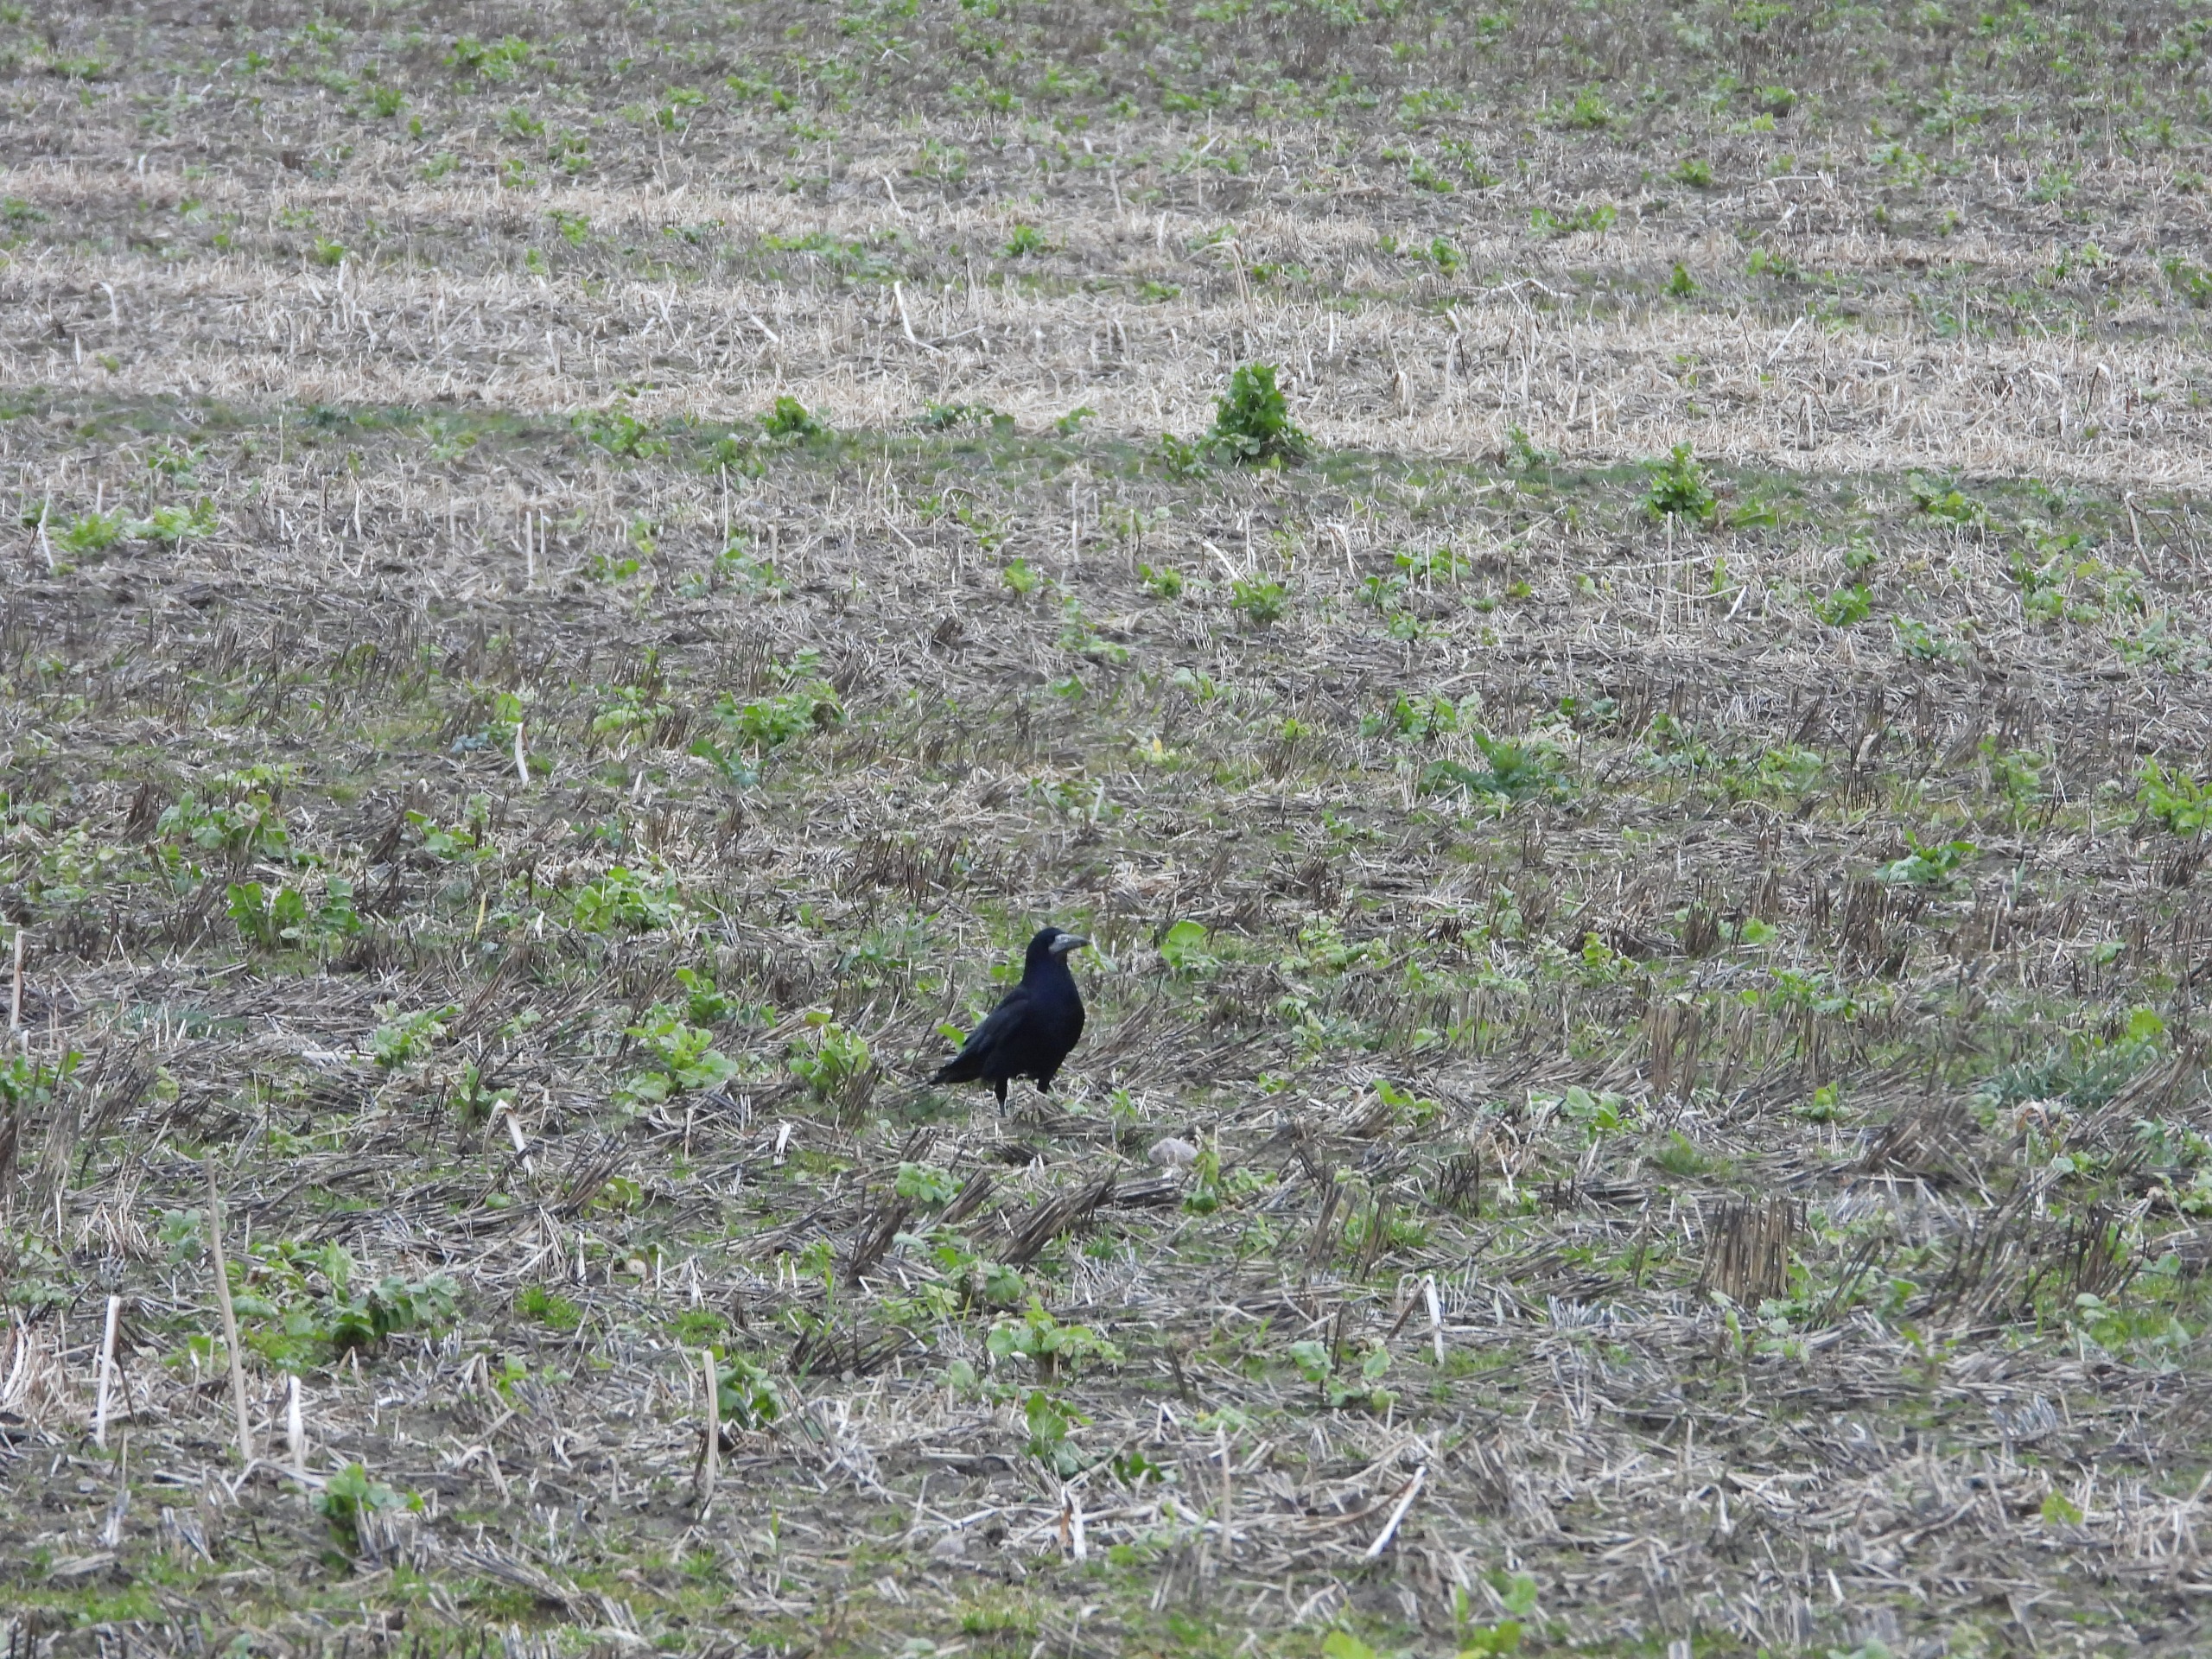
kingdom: Animalia
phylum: Chordata
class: Aves
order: Passeriformes
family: Corvidae
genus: Corvus
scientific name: Corvus frugilegus
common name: Råge
